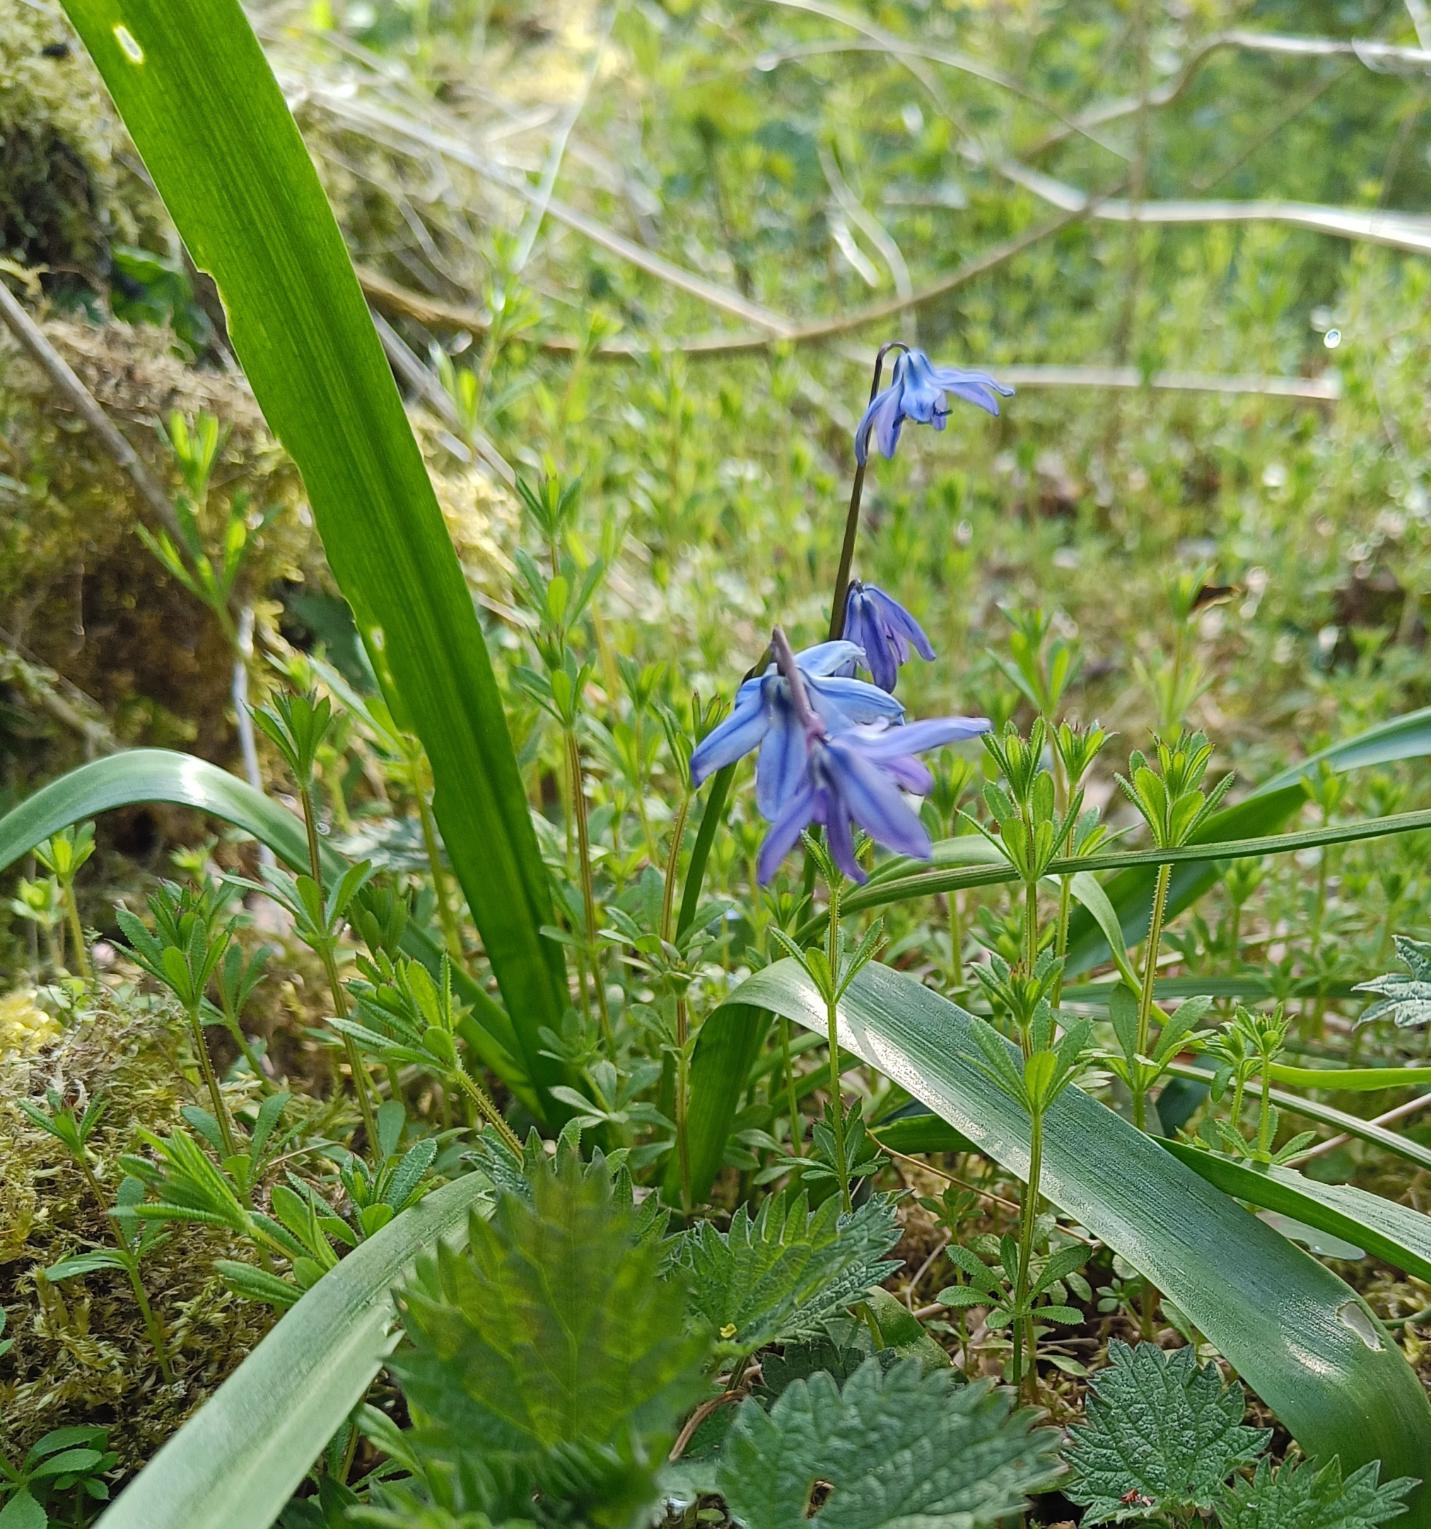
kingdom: Plantae
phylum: Tracheophyta
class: Liliopsida
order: Asparagales
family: Asparagaceae
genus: Scilla
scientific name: Scilla siberica
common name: Russisk skilla
